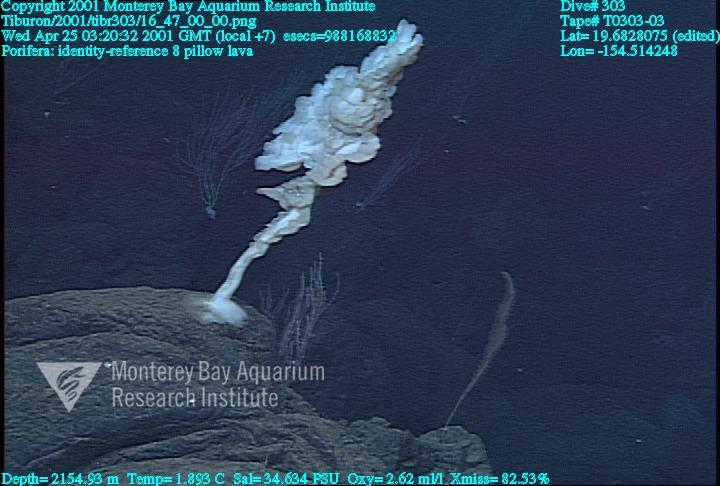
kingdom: Animalia
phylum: Porifera
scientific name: Porifera
